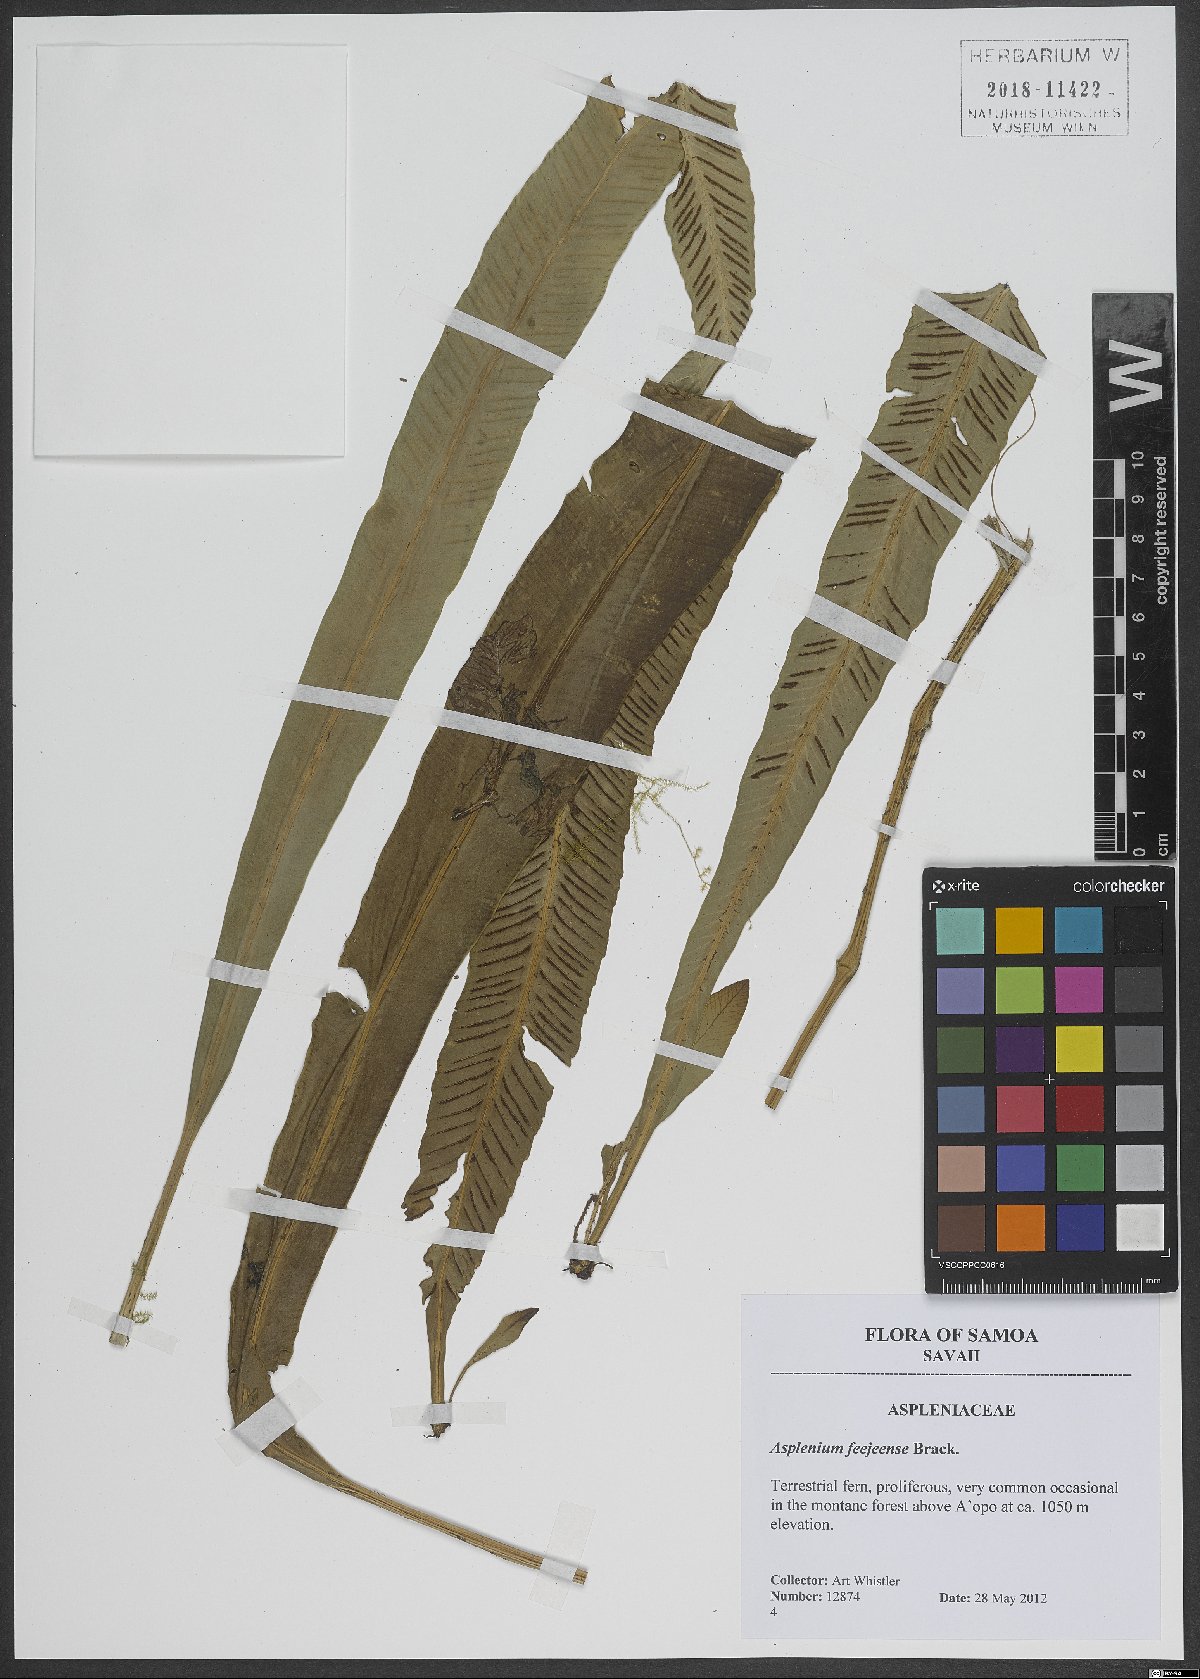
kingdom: Plantae
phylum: Tracheophyta
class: Polypodiopsida
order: Polypodiales
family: Aspleniaceae
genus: Asplenium
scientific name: Asplenium amboinense
